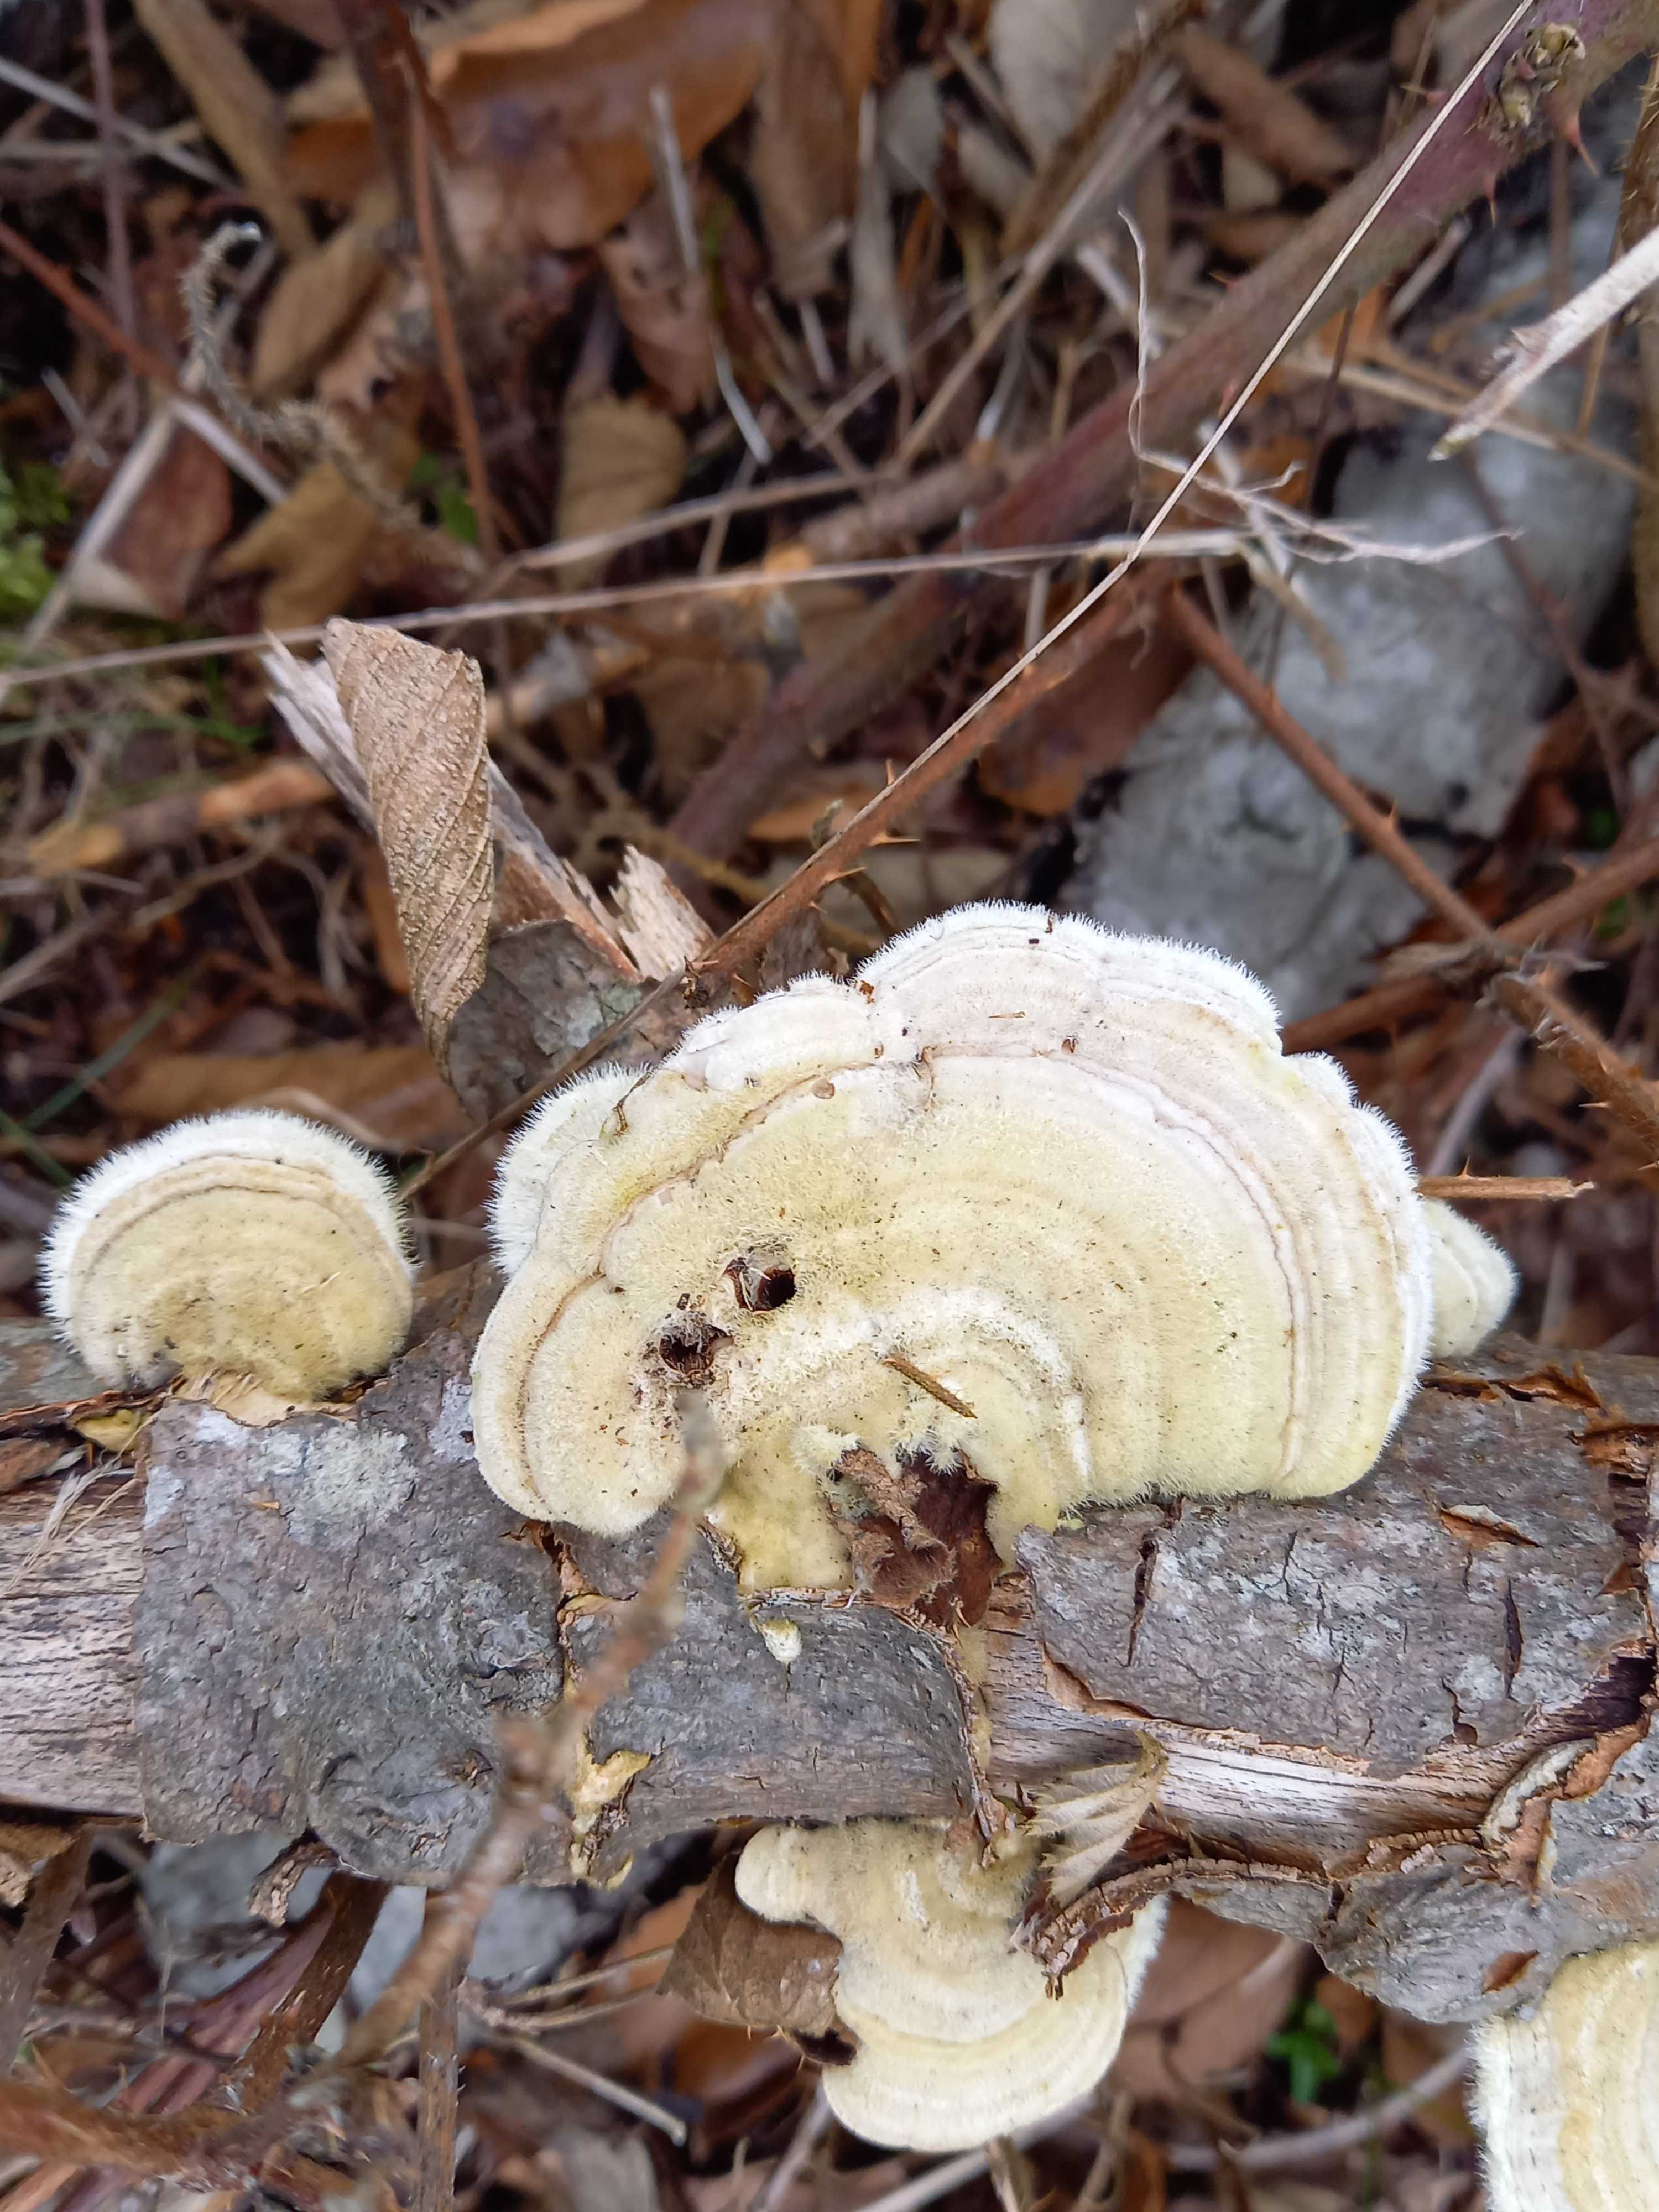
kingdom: Fungi
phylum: Basidiomycota
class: Agaricomycetes
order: Polyporales
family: Polyporaceae
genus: Trametes
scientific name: Trametes hirsuta
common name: håret læderporesvamp
